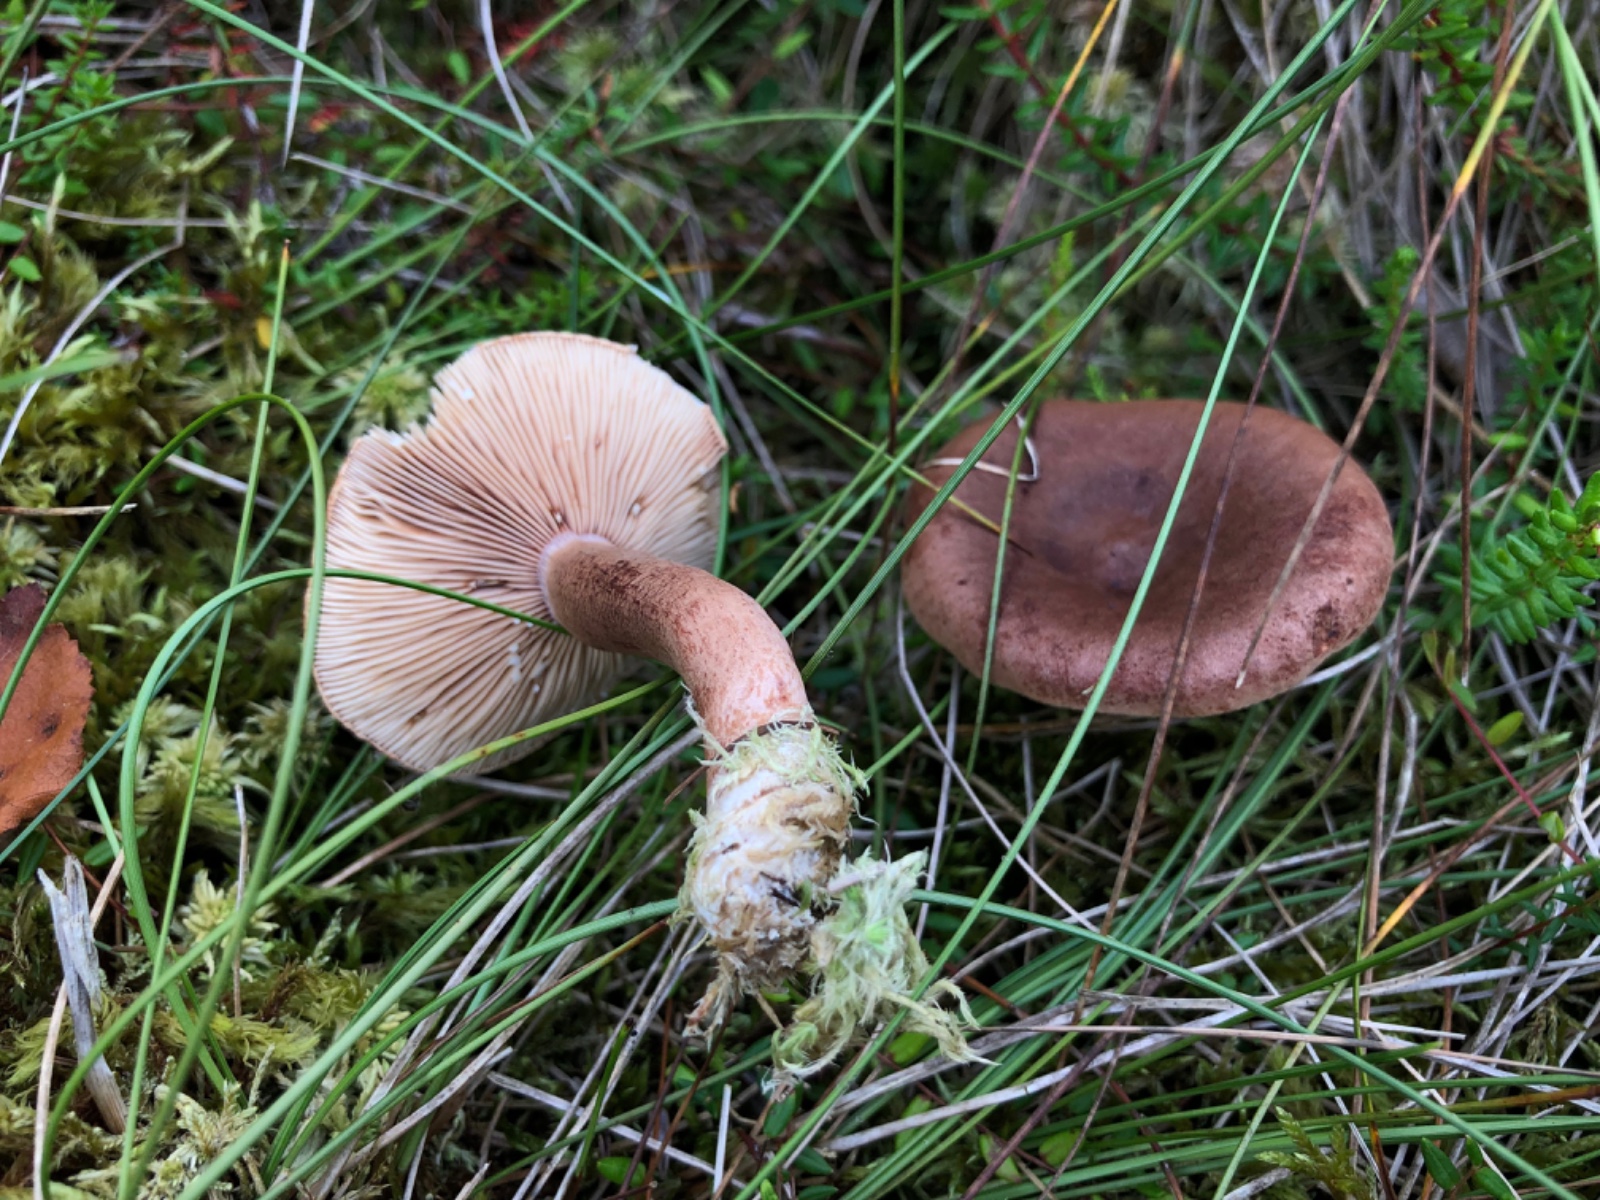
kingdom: Fungi
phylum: Basidiomycota
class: Agaricomycetes
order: Russulales
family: Russulaceae
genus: Lactarius
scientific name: Lactarius rufus
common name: rødbrun mælkehat
